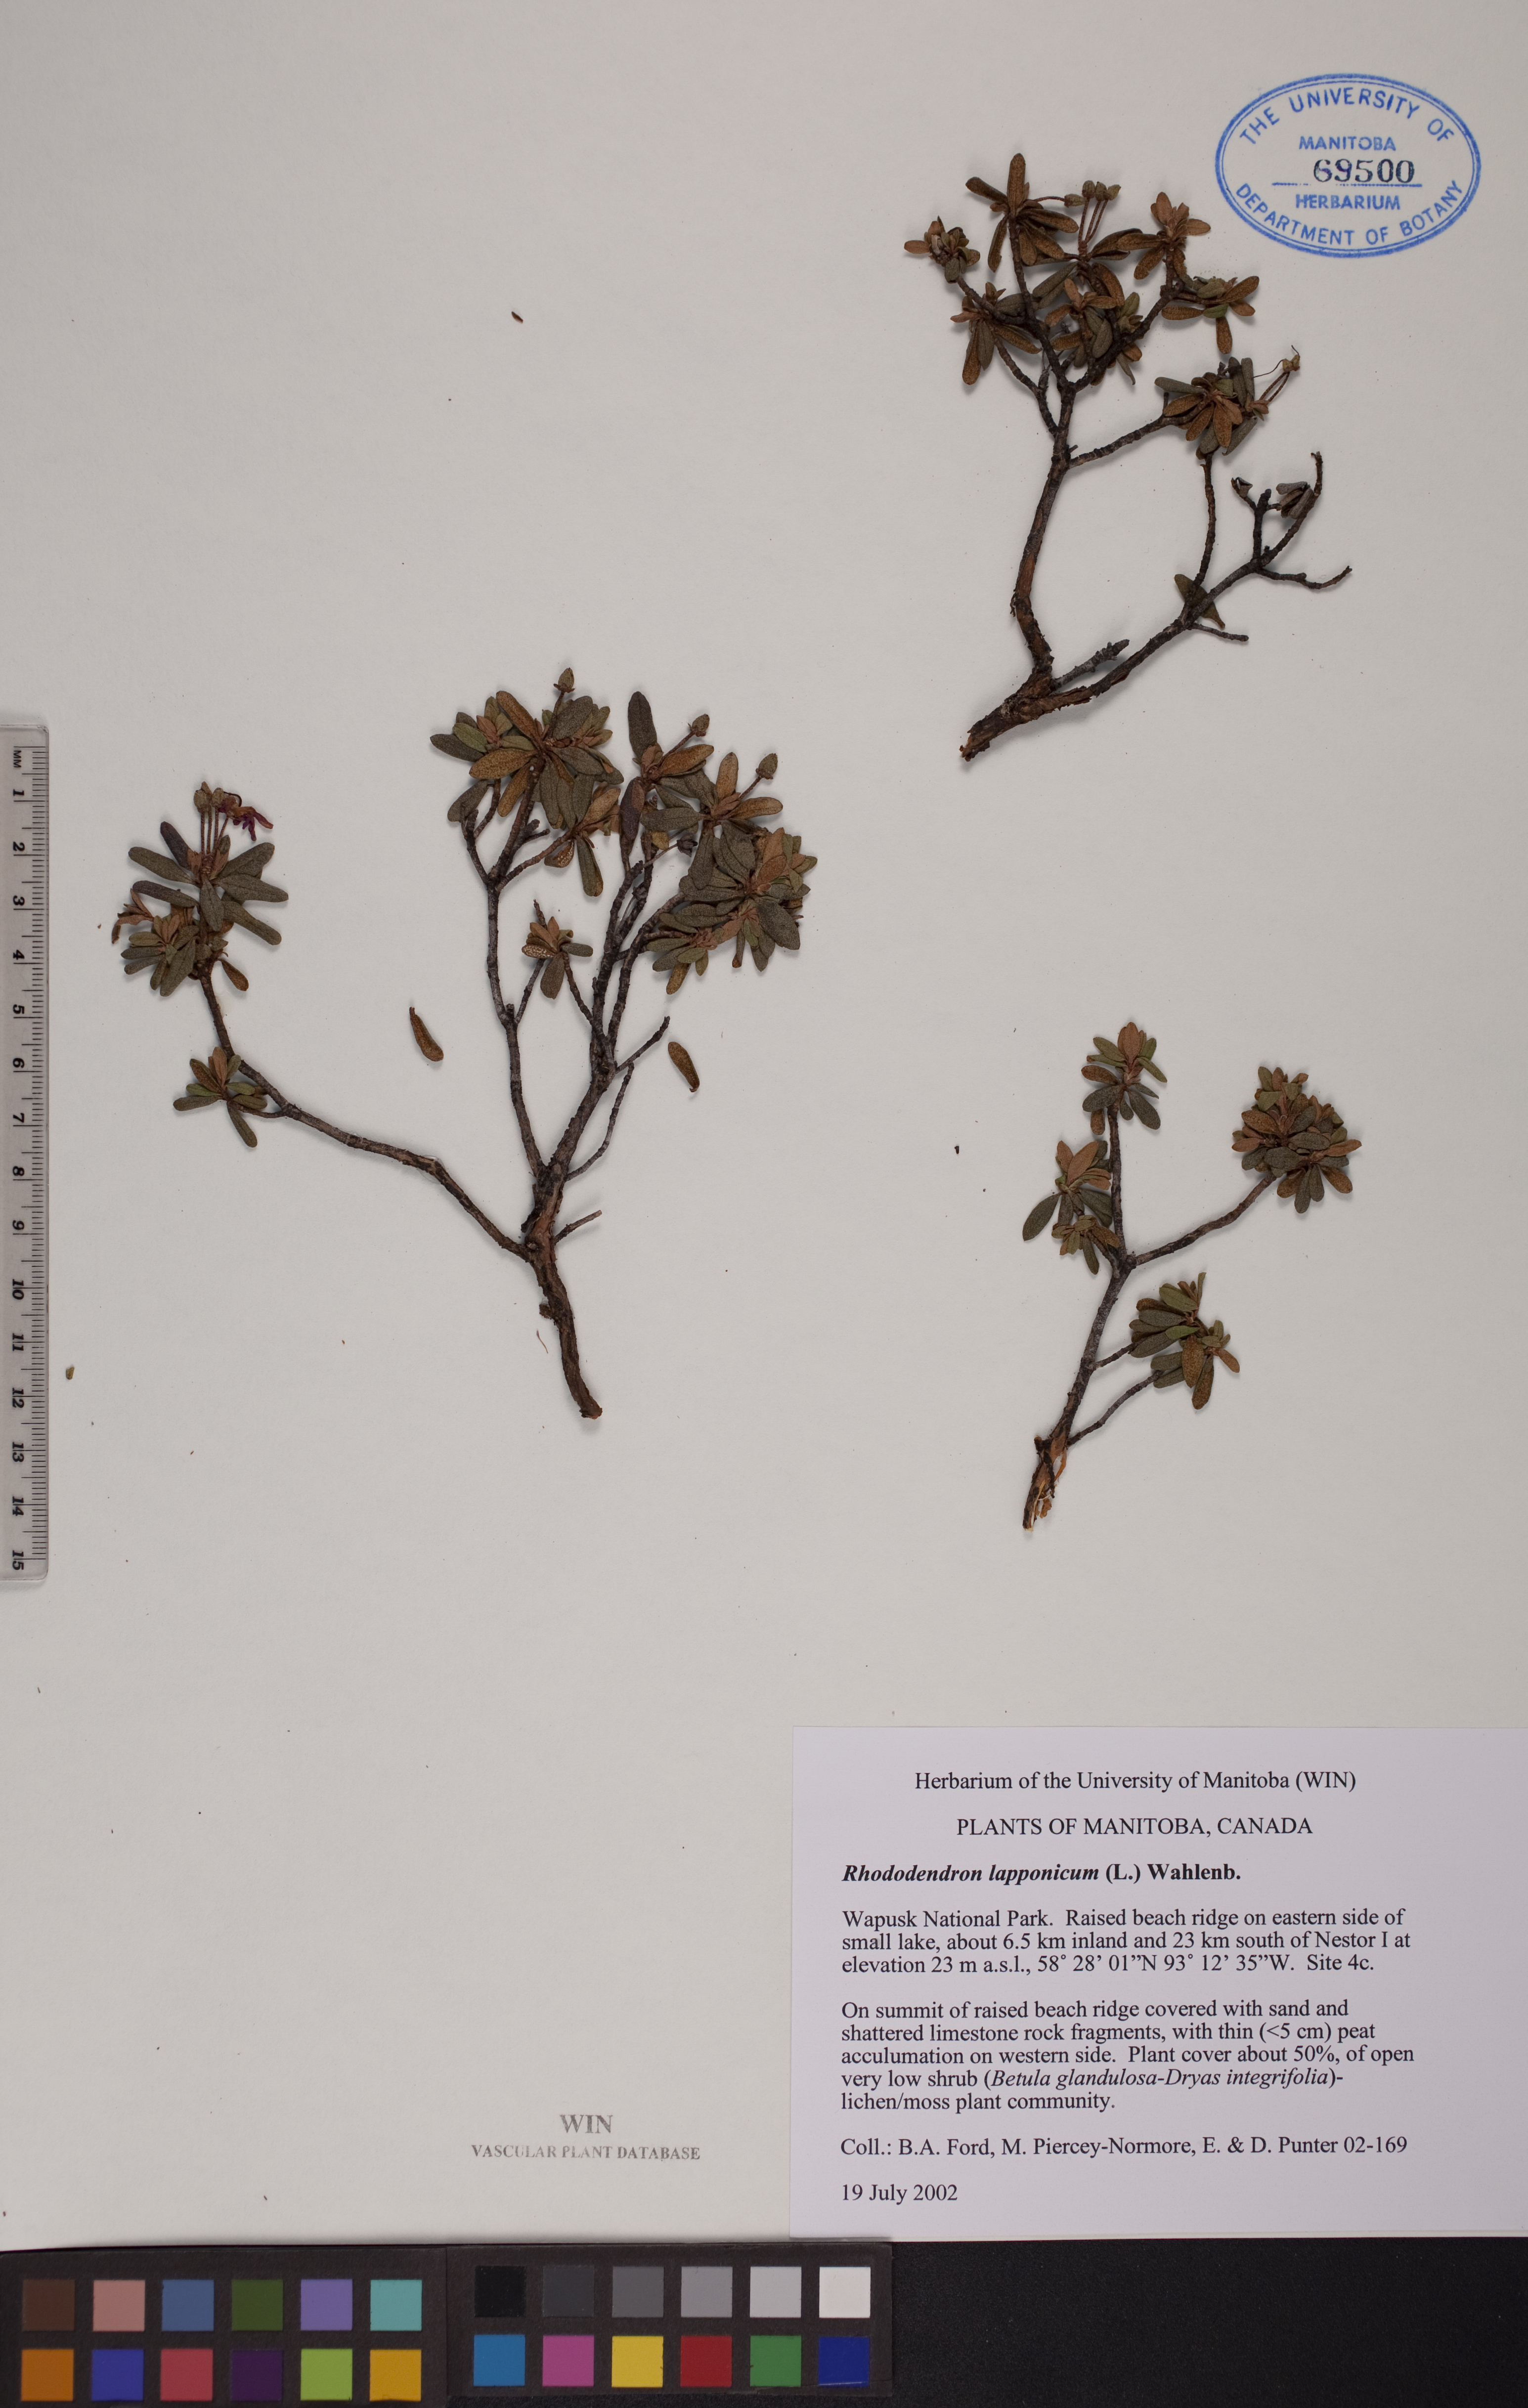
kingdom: Plantae
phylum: Tracheophyta
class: Magnoliopsida
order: Ericales
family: Ericaceae
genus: Rhododendron
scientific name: Rhododendron lapponicum
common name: Lapland rhododendron
